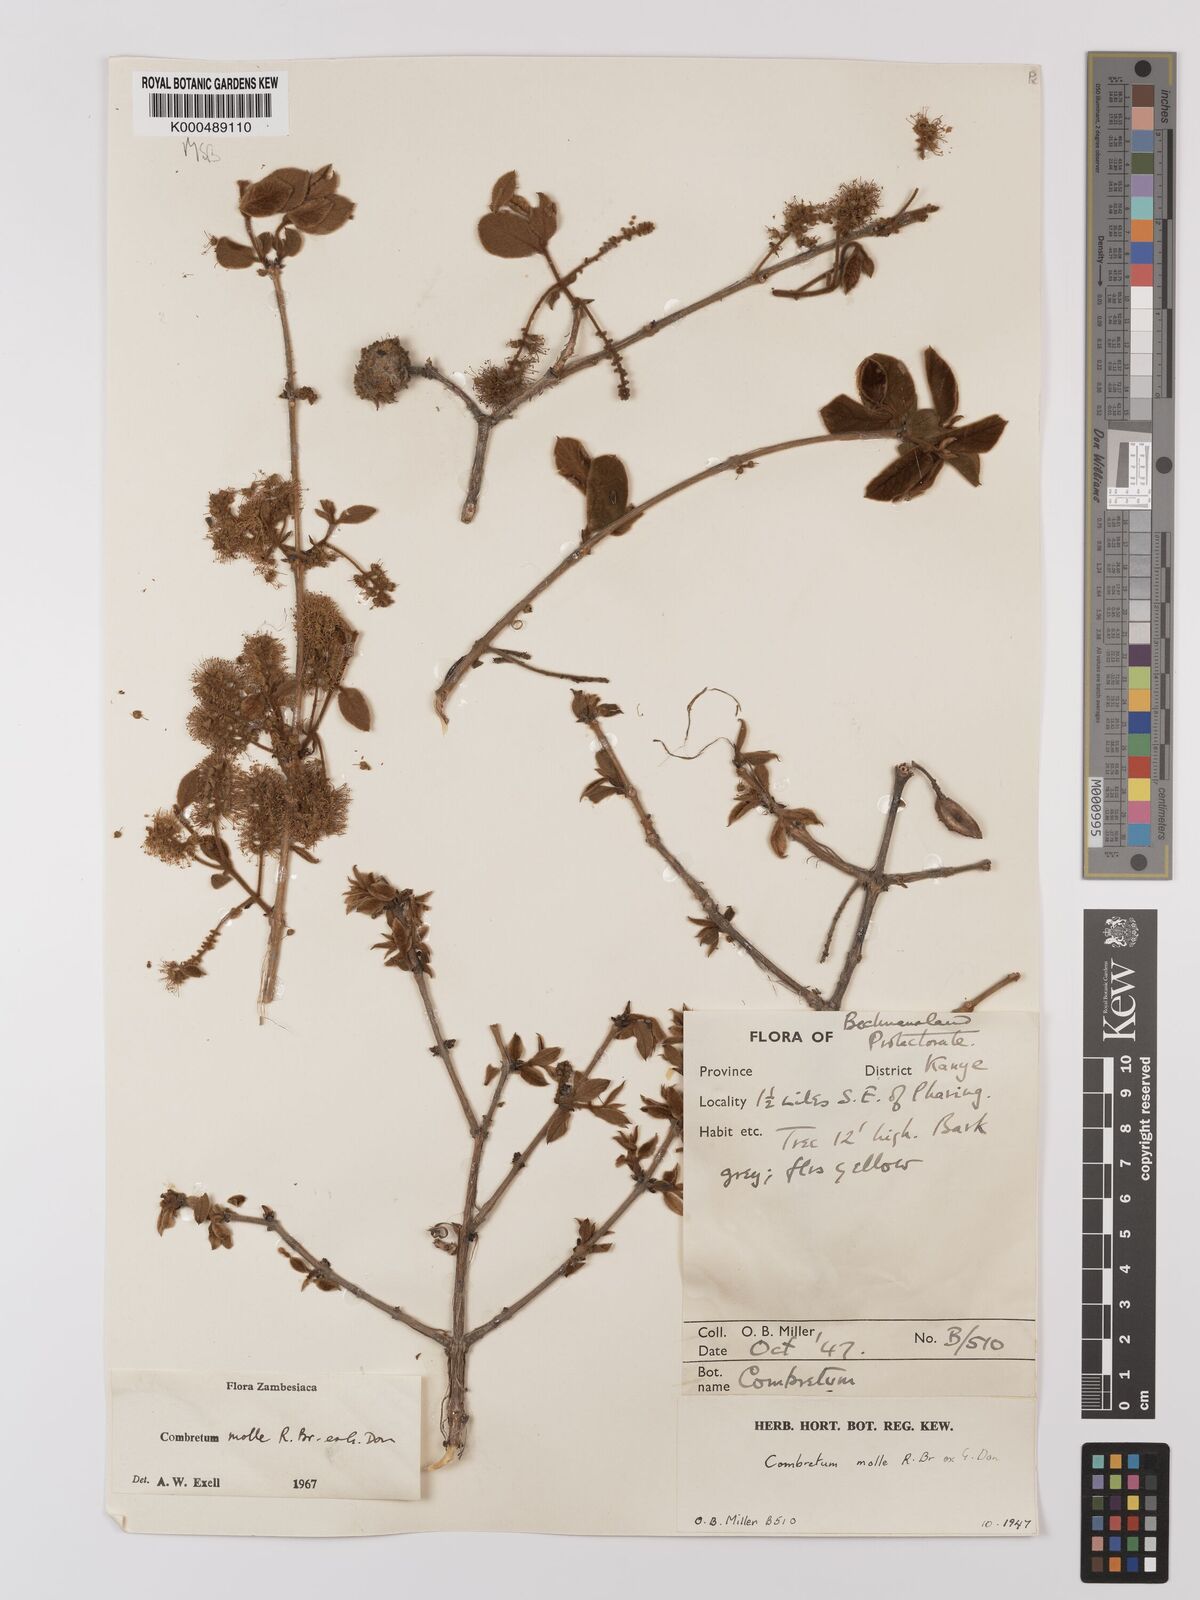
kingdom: Plantae
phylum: Tracheophyta
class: Magnoliopsida
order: Myrtales
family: Combretaceae
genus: Combretum
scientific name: Combretum molle
